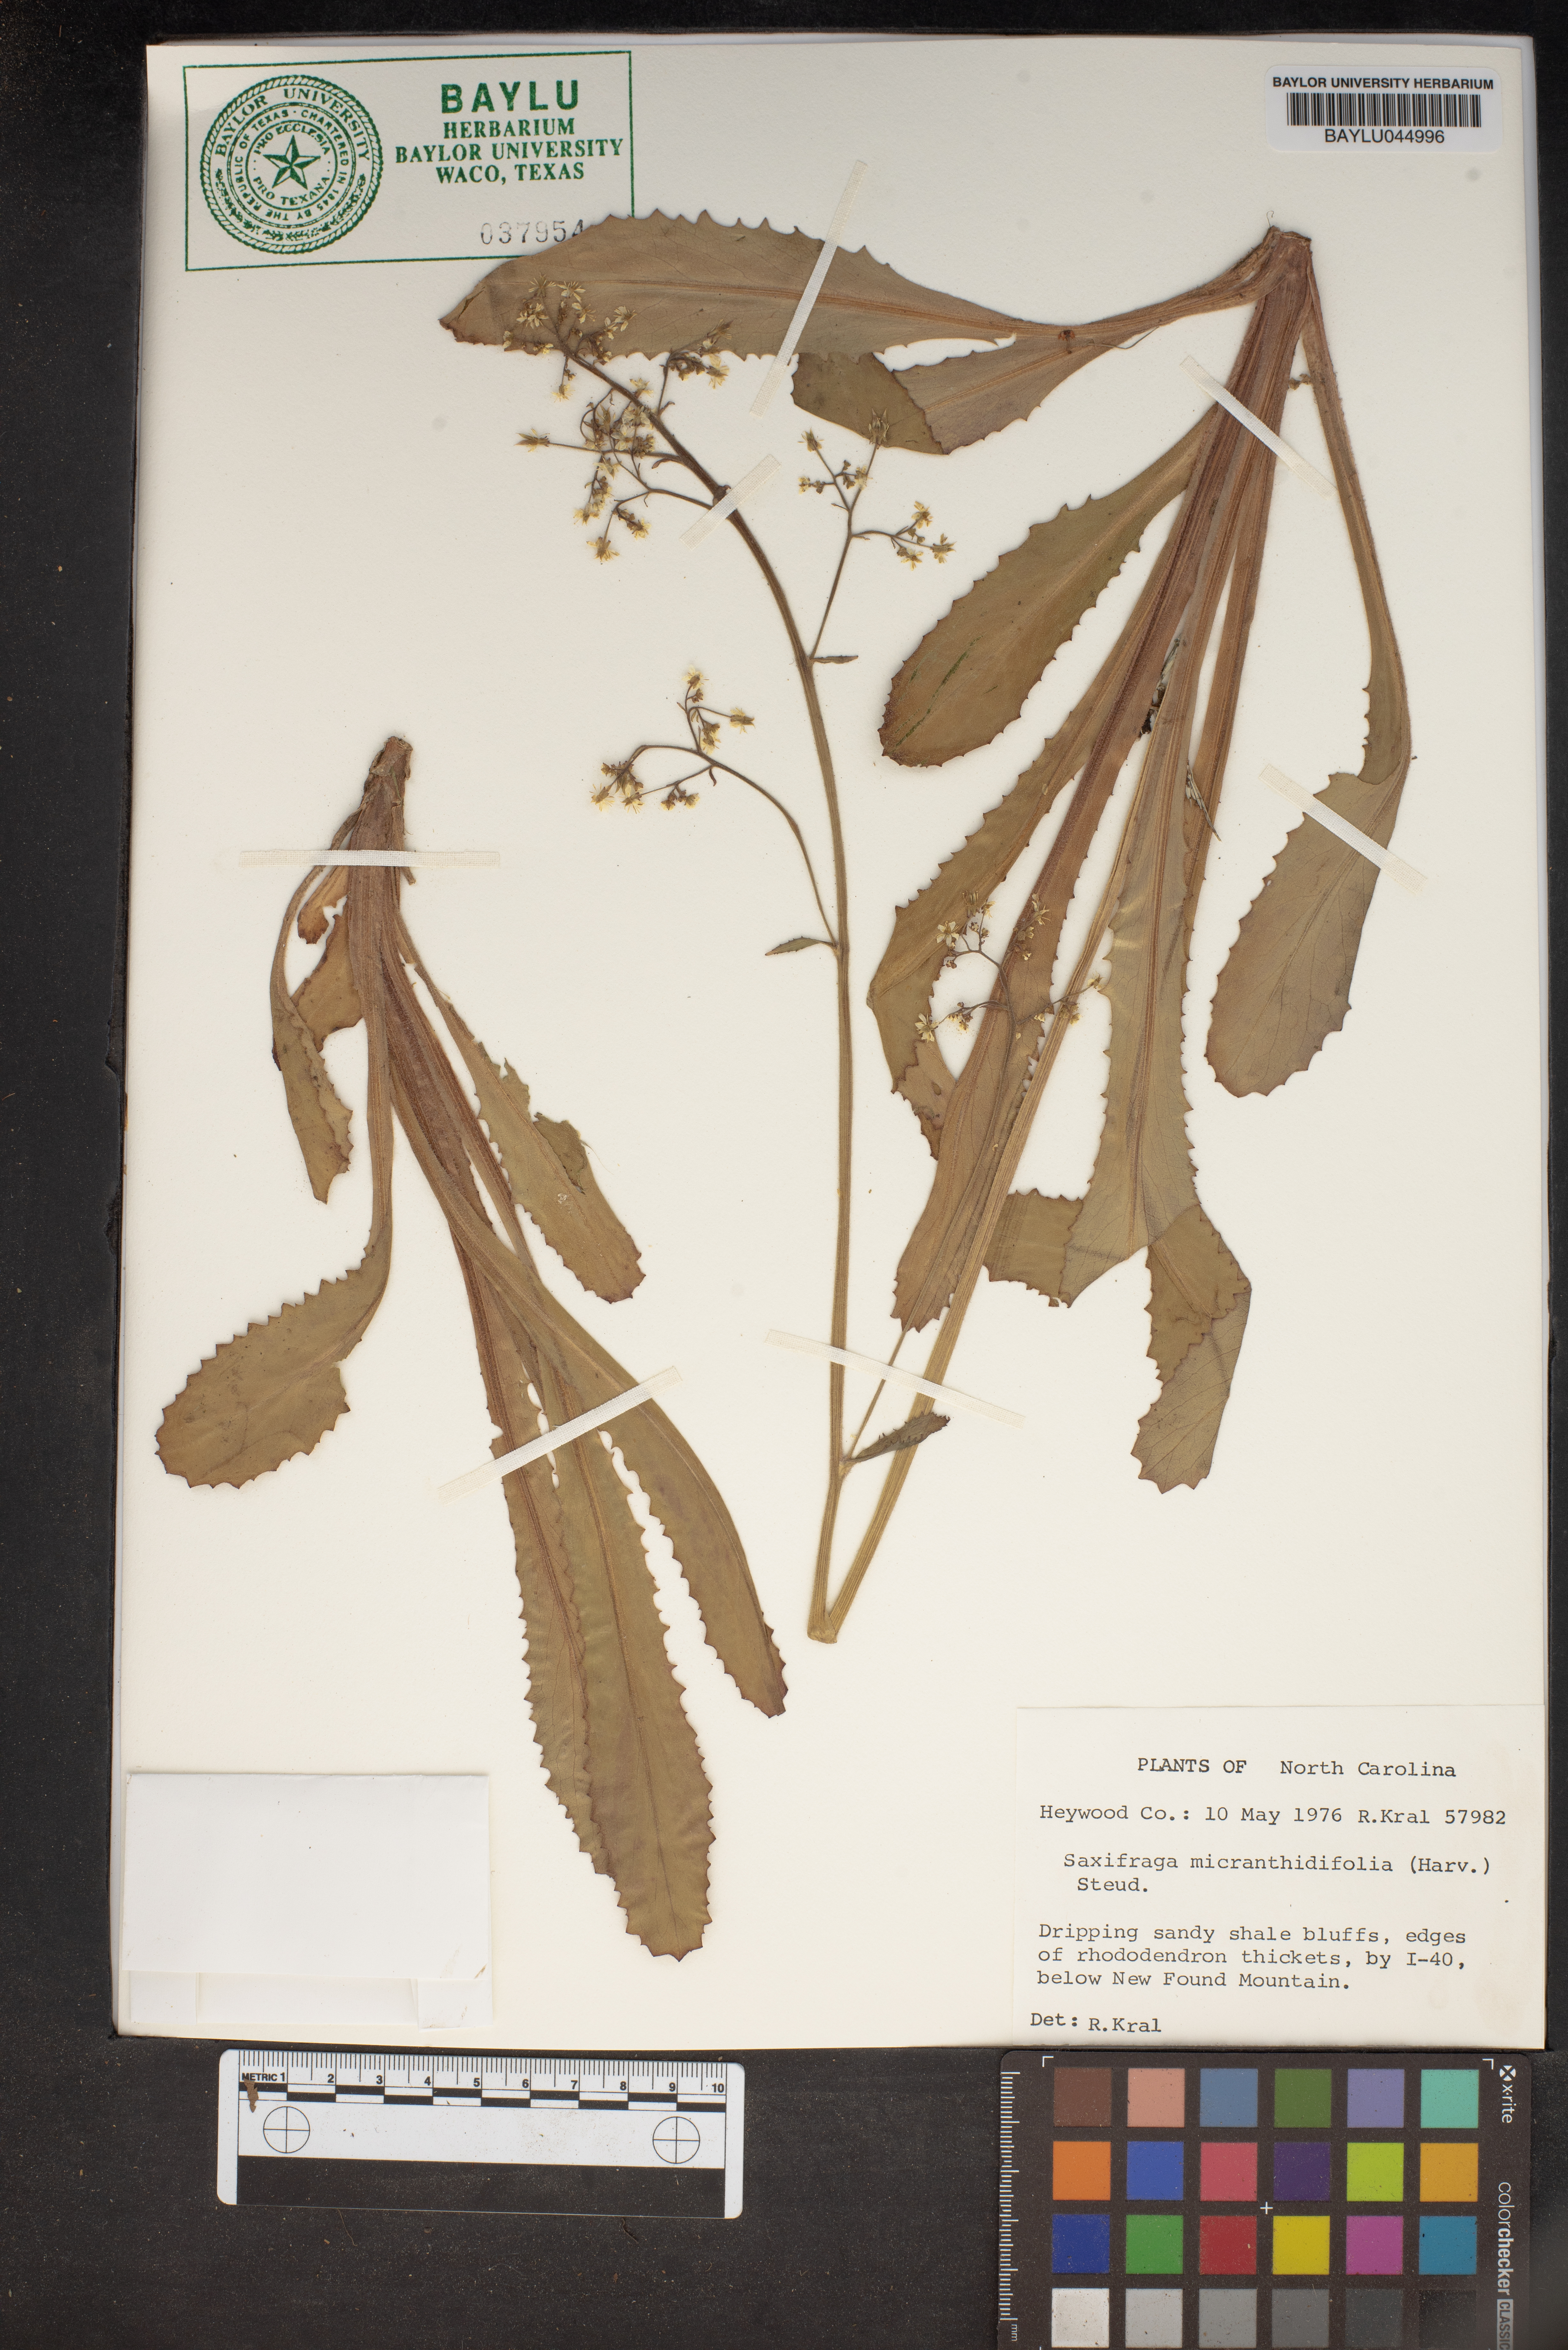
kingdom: Plantae
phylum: Tracheophyta
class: Magnoliopsida
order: Saxifragales
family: Saxifragaceae
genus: Micranthes
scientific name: Micranthes micranthidifolia
